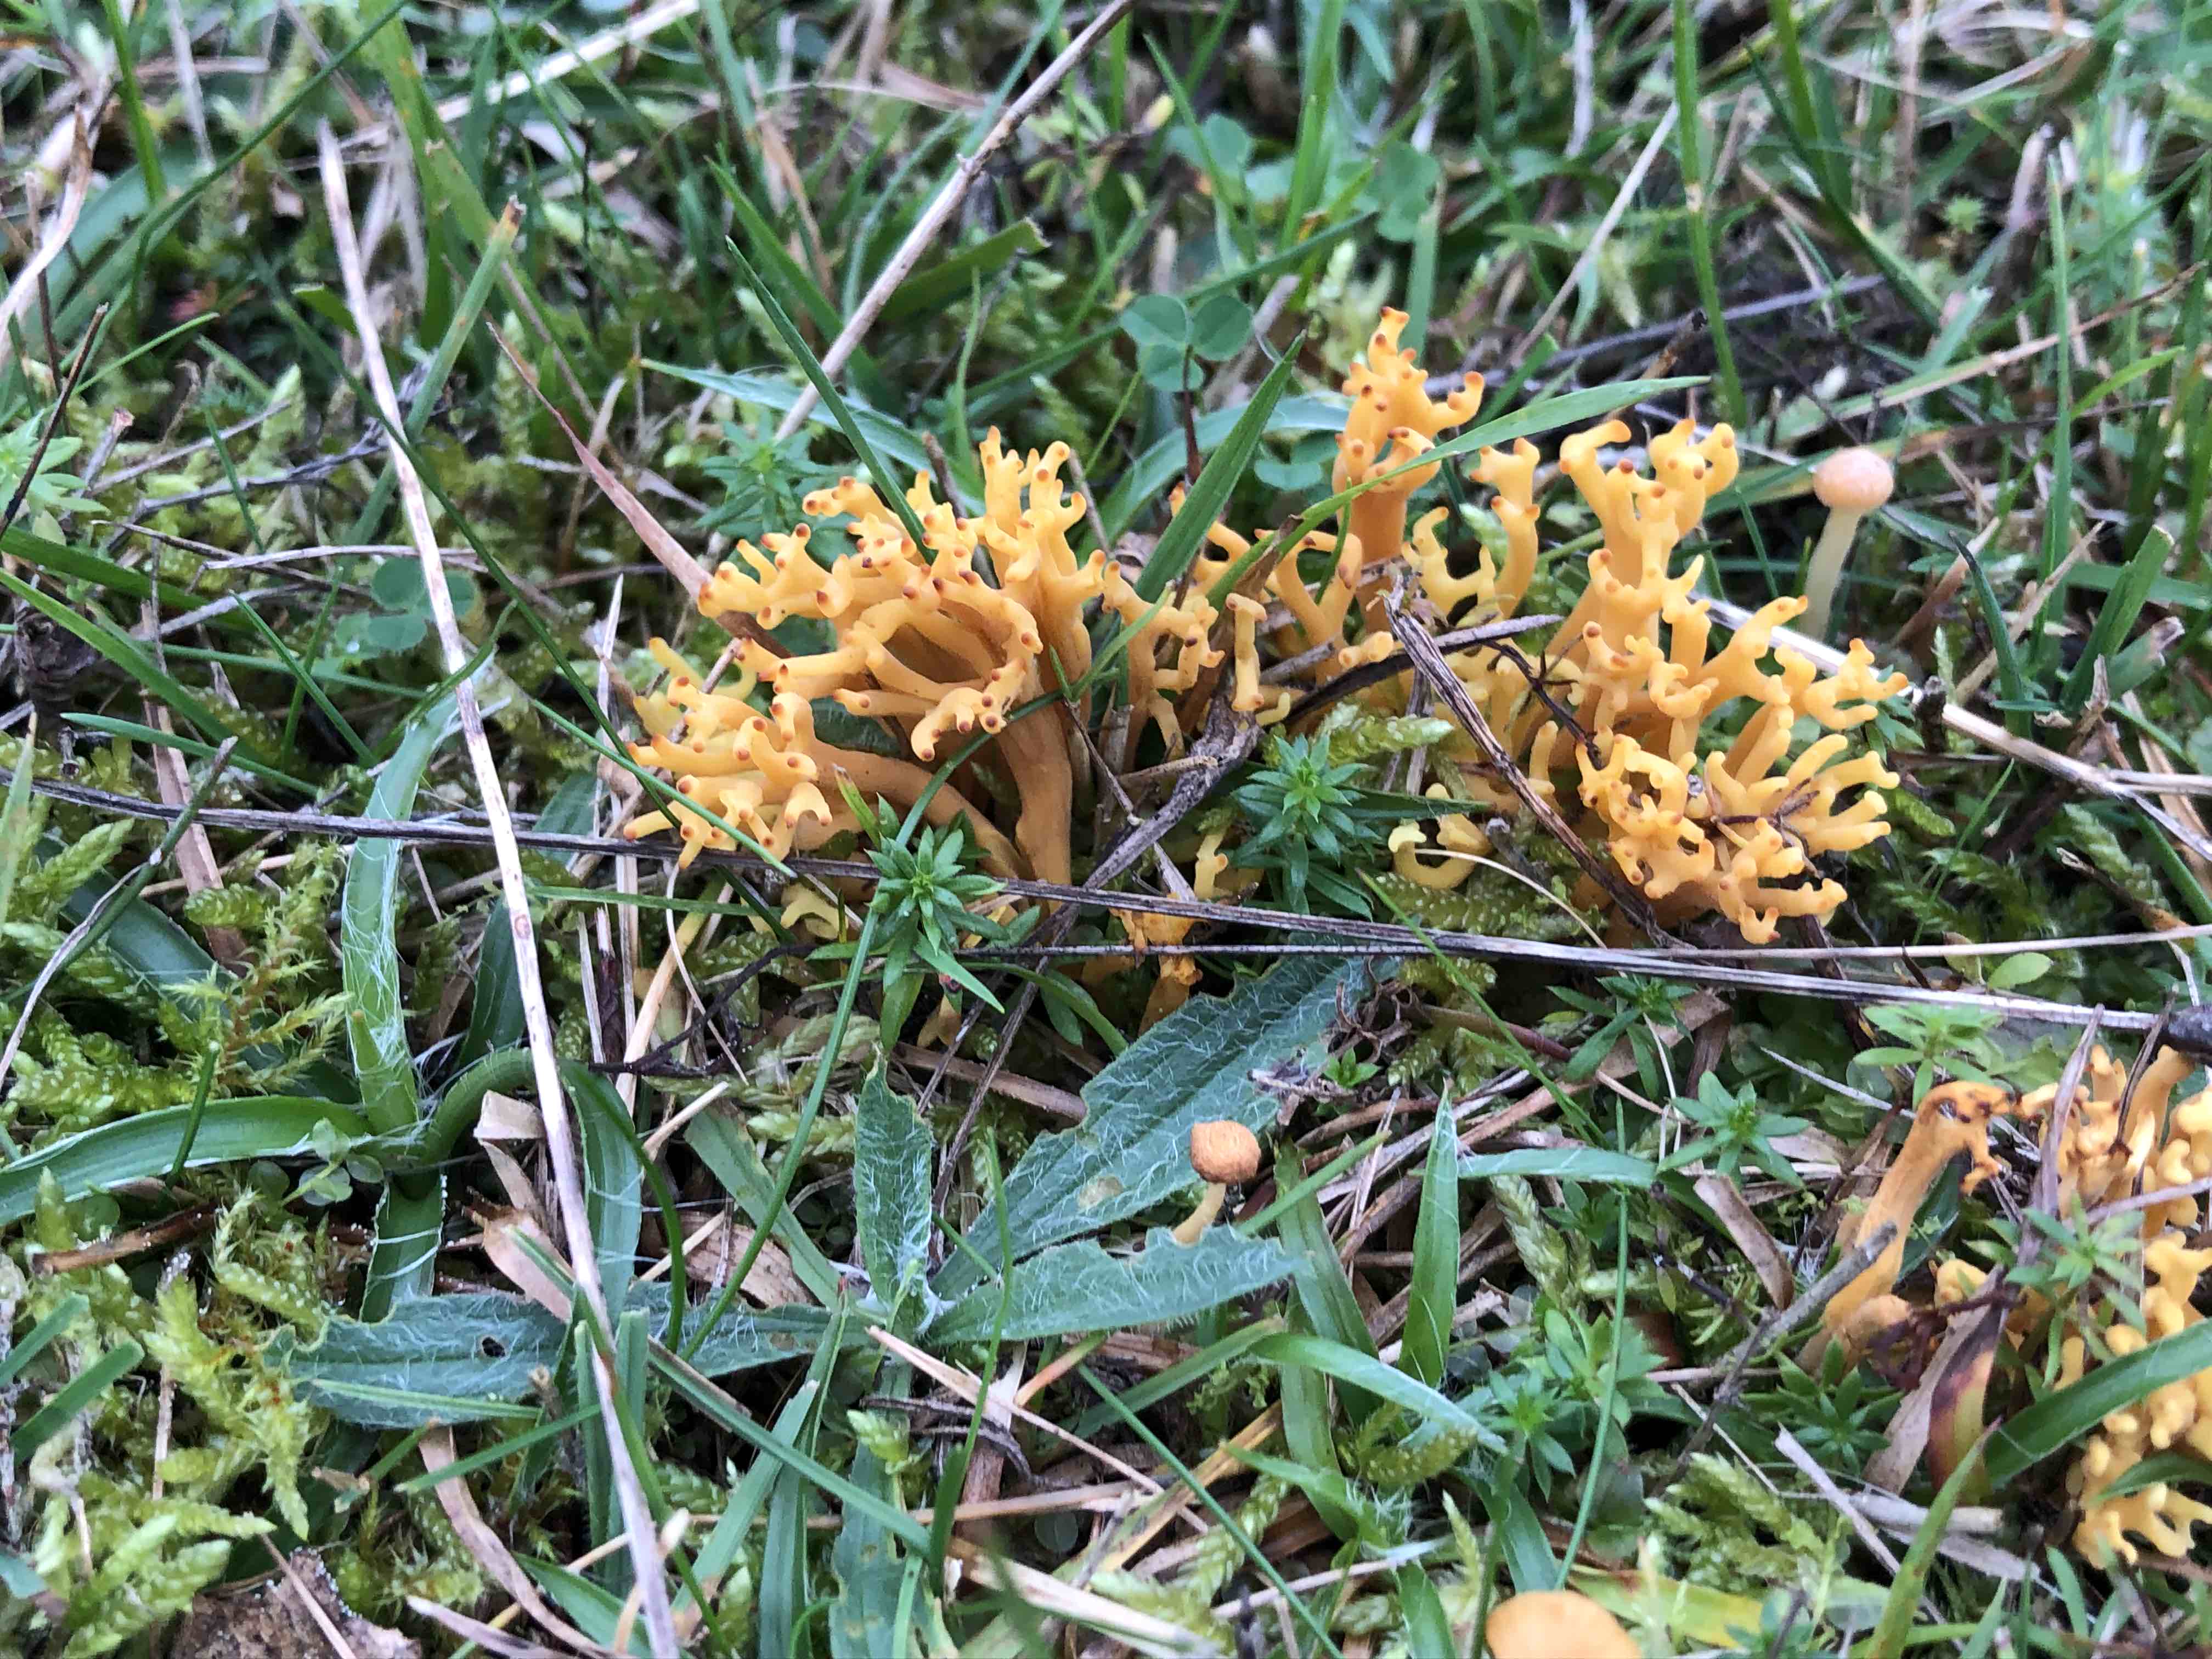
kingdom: Fungi
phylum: Basidiomycota
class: Agaricomycetes
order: Agaricales
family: Clavariaceae
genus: Clavulinopsis
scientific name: Clavulinopsis corniculata
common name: eng-køllesvamp
